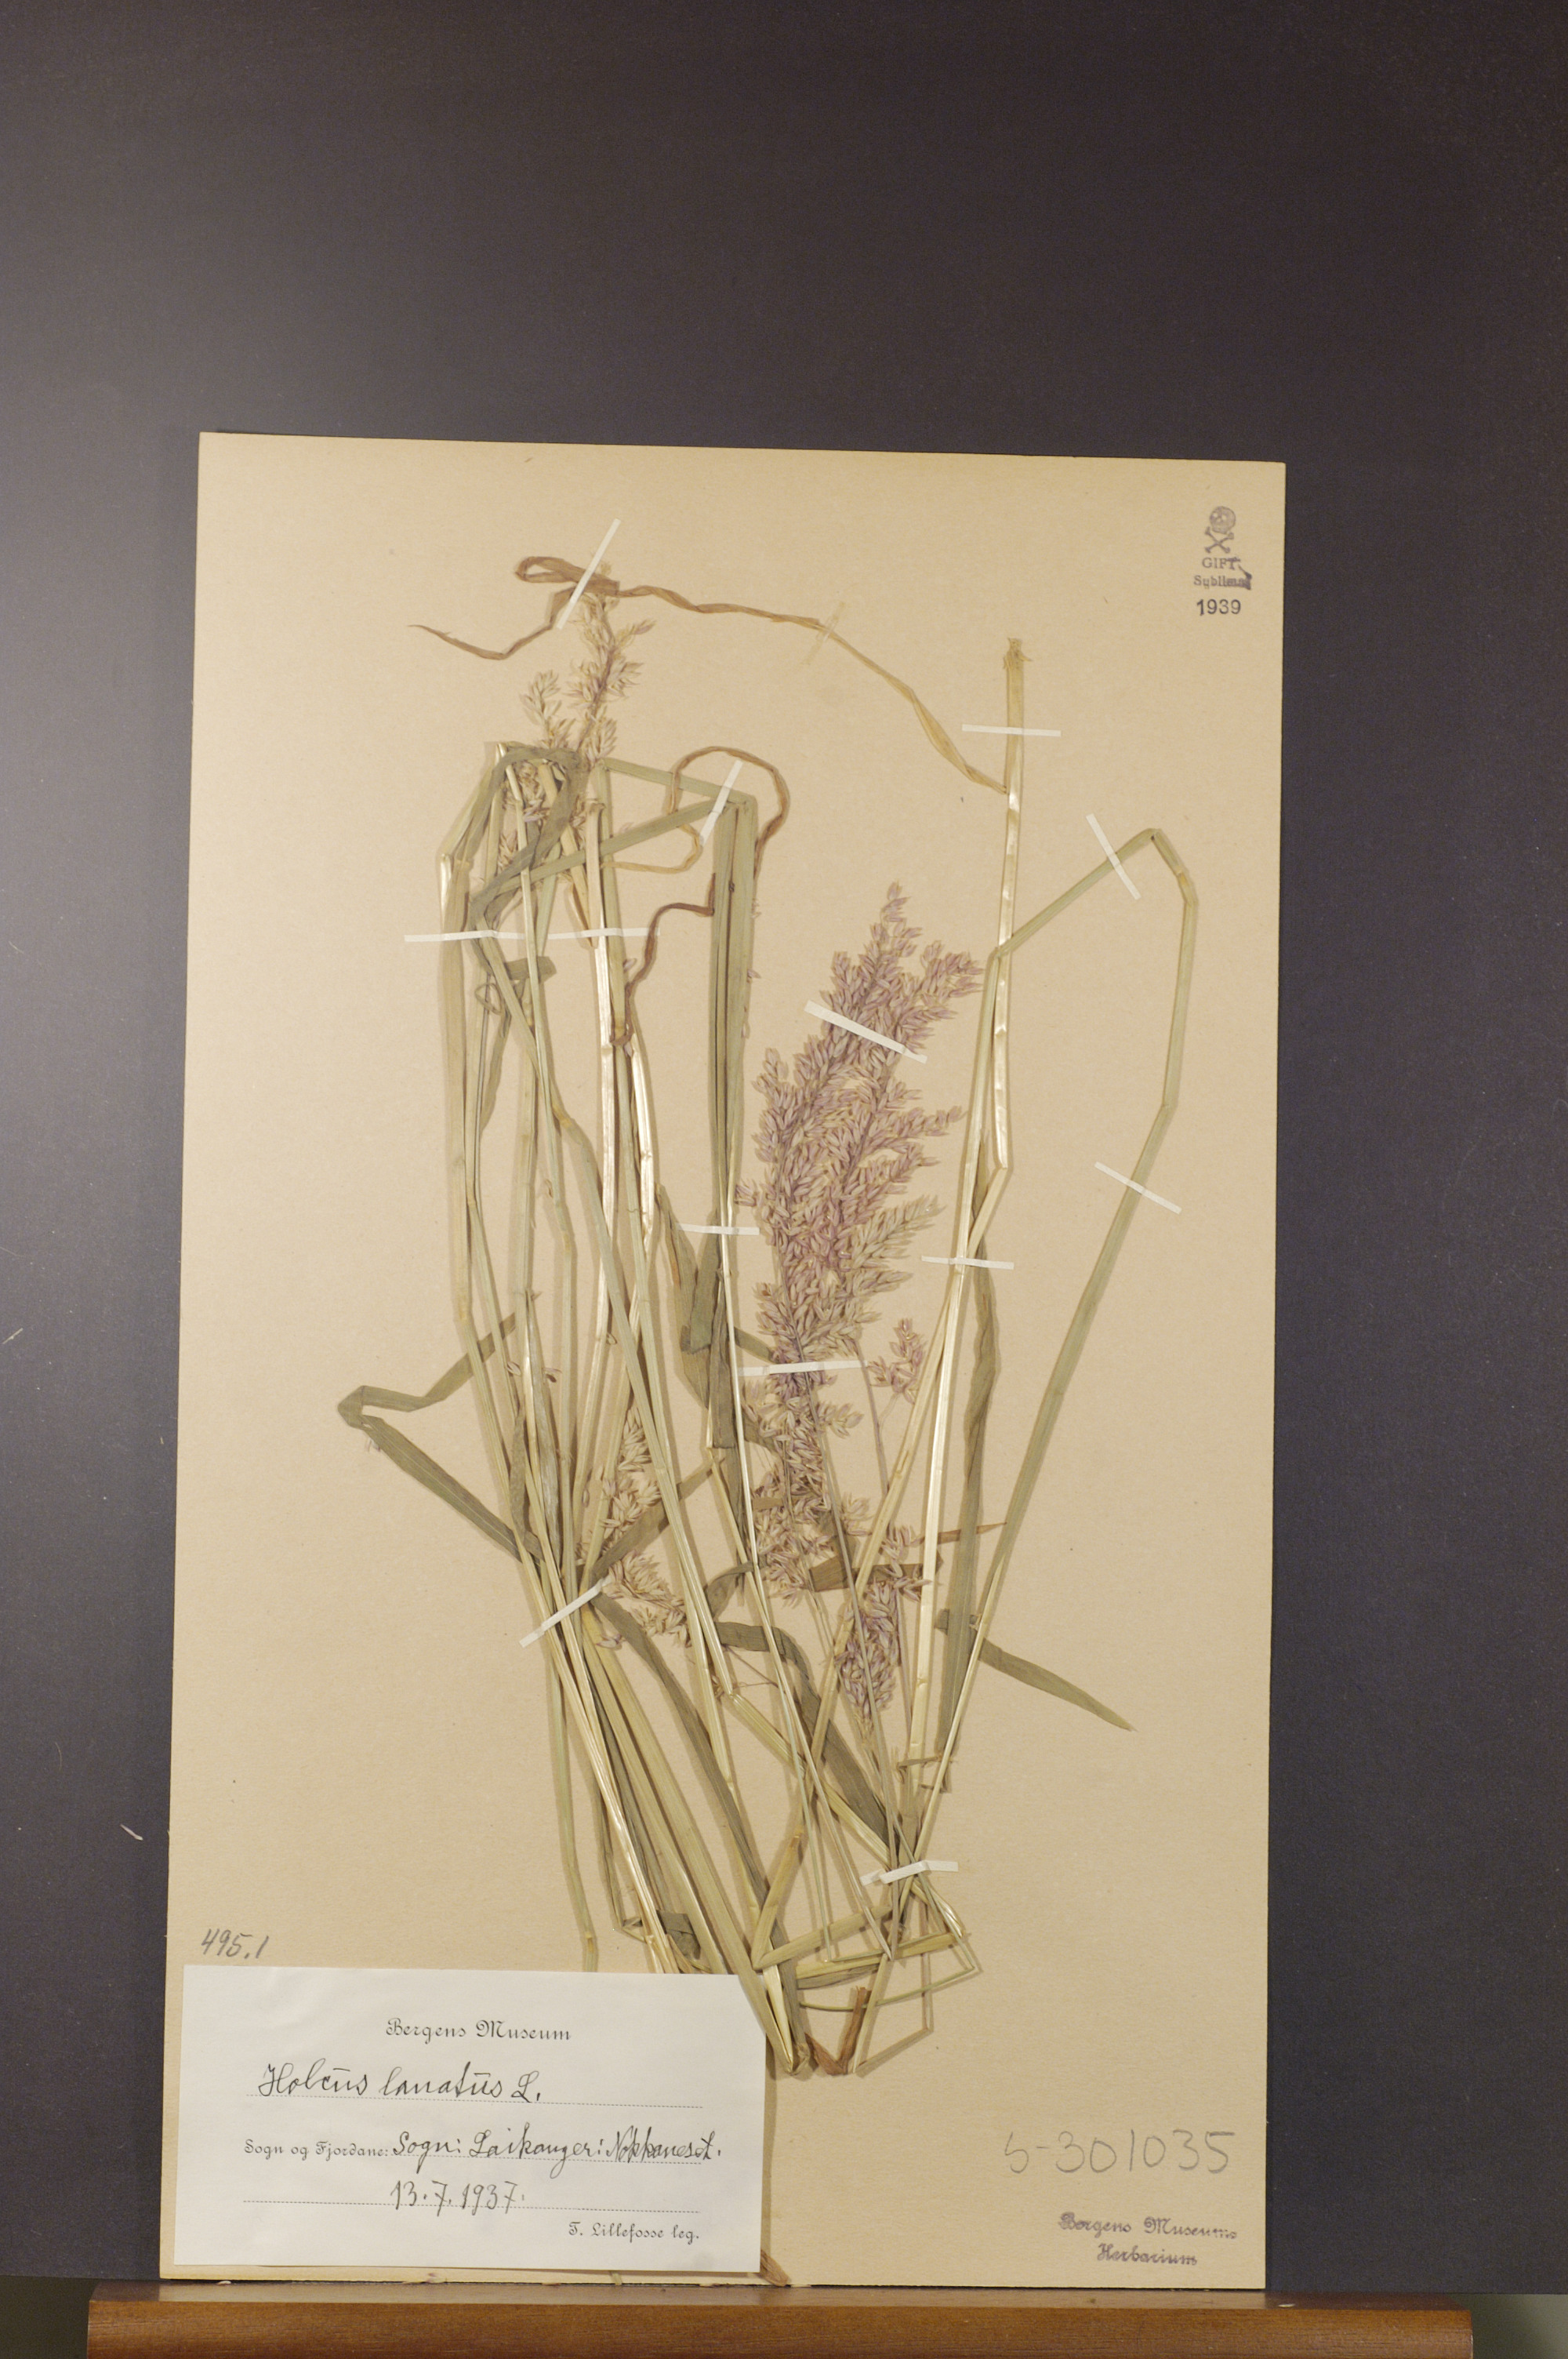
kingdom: Plantae
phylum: Tracheophyta
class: Liliopsida
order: Poales
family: Poaceae
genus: Holcus
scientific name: Holcus lanatus
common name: Yorkshire-fog
